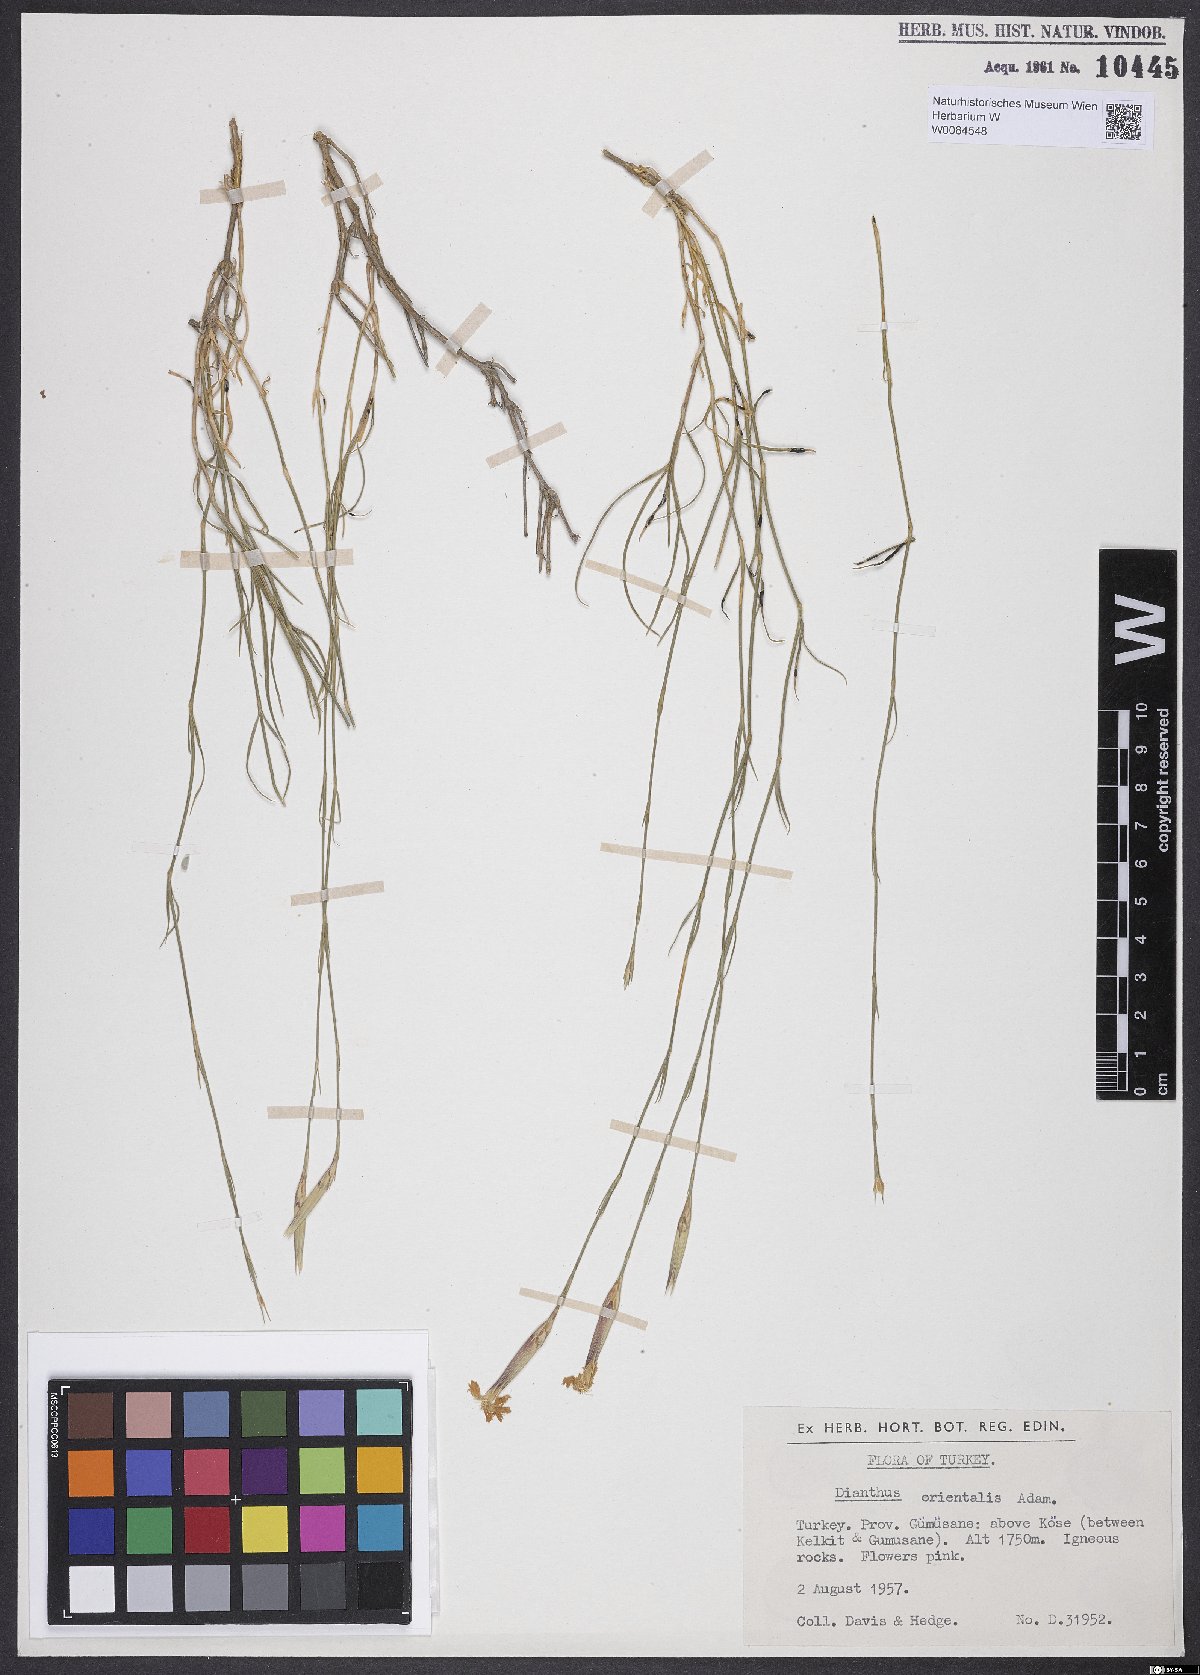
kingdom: Plantae
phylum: Tracheophyta
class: Magnoliopsida
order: Caryophyllales
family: Caryophyllaceae
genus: Dianthus
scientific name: Dianthus orientalis
